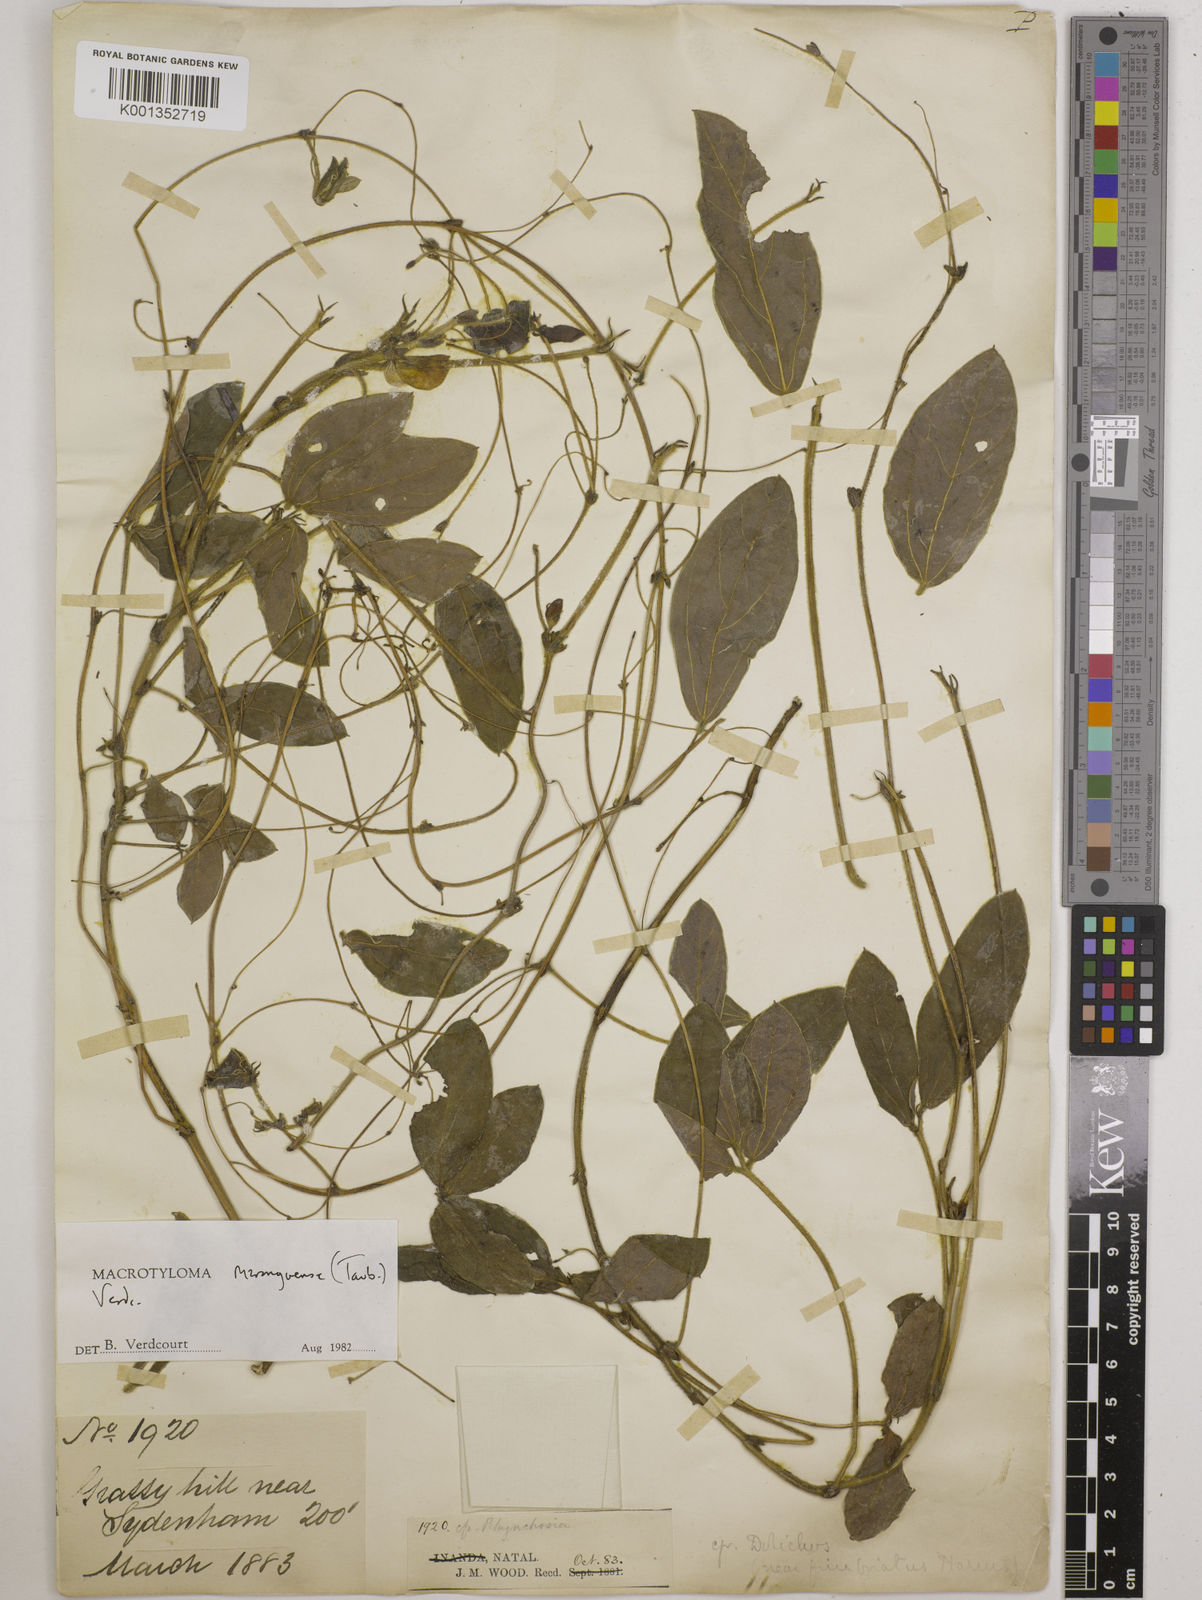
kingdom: Plantae
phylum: Tracheophyta
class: Magnoliopsida
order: Fabales
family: Fabaceae
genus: Macrotyloma
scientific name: Macrotyloma maranguense
